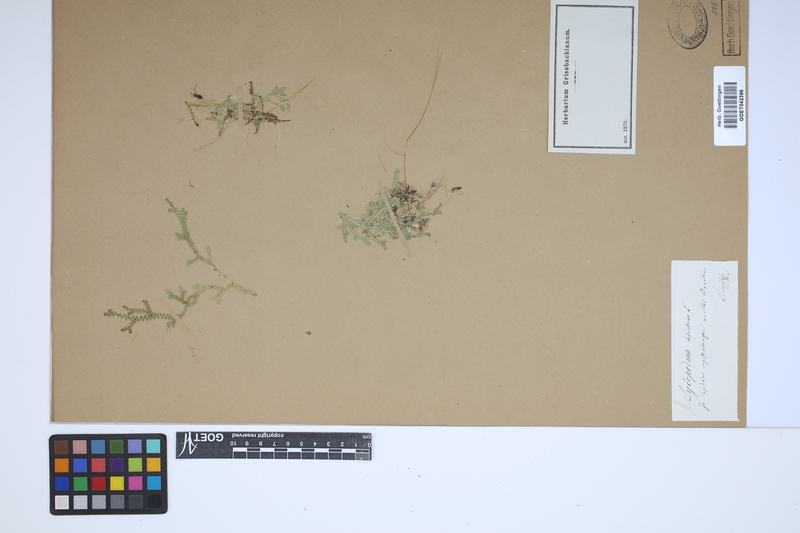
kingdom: Plantae
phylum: Tracheophyta
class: Lycopodiopsida
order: Selaginellales
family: Selaginellaceae
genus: Selaginella
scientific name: Selaginella helvetica
